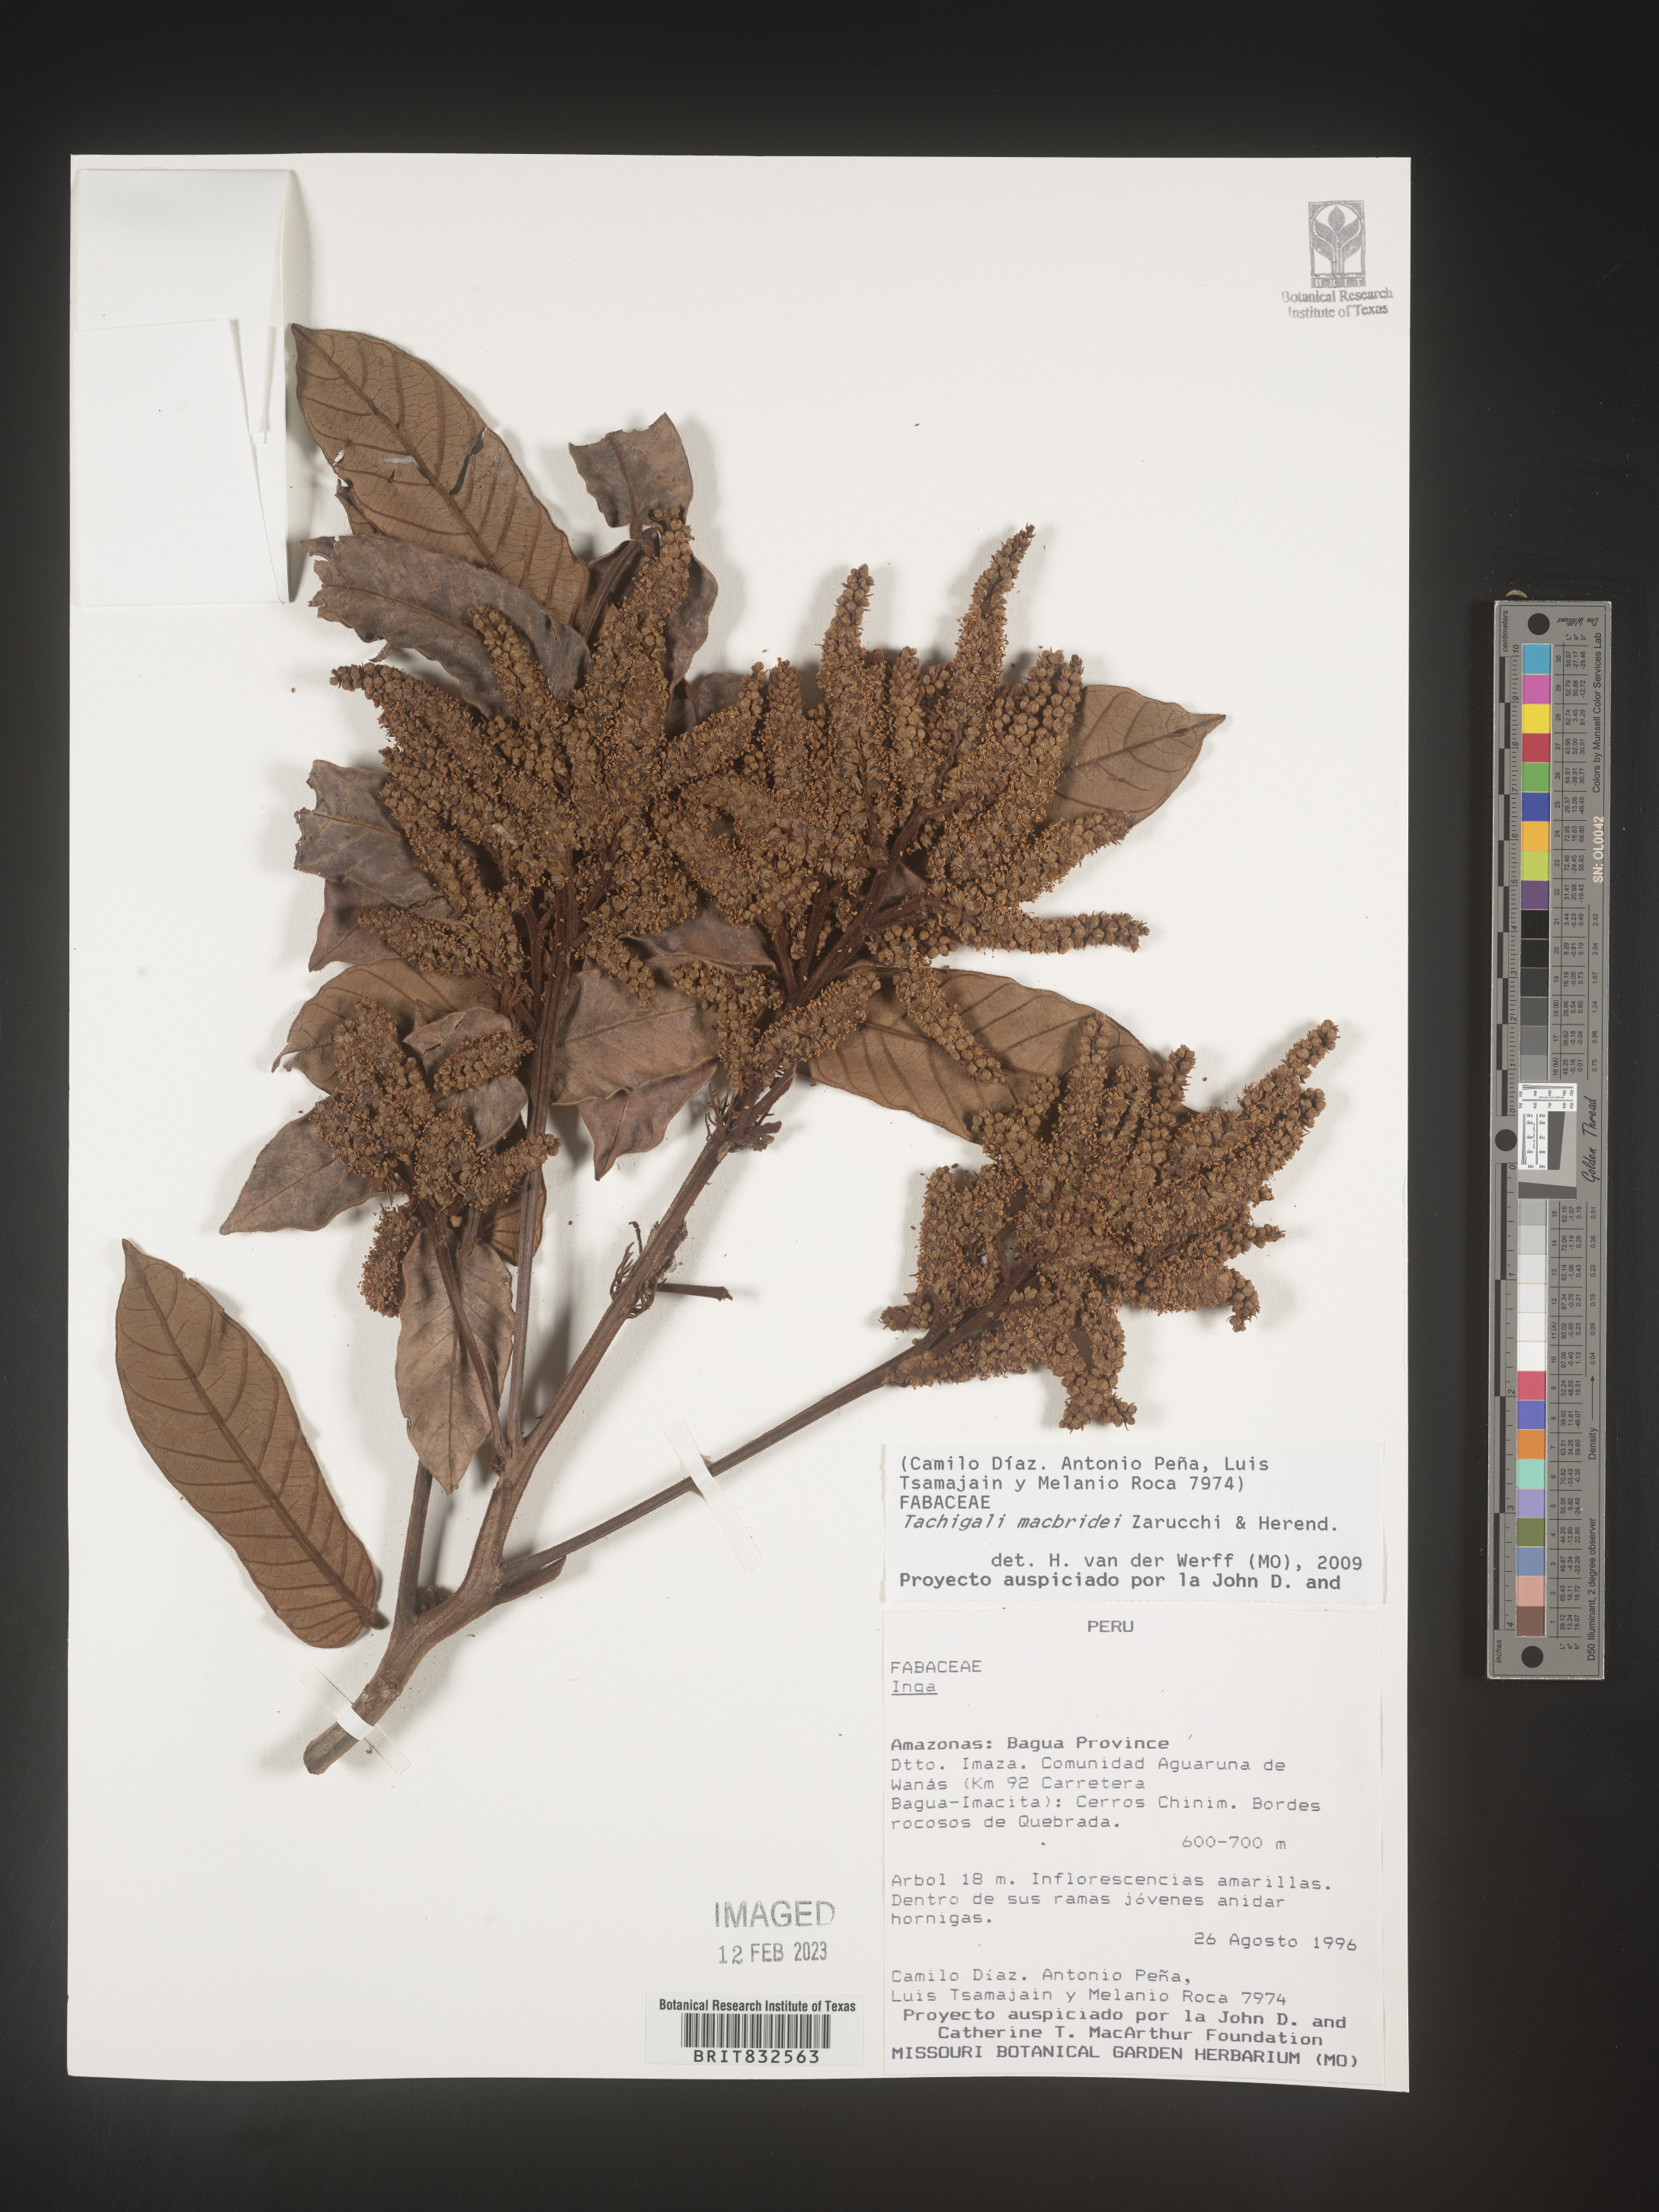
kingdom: Plantae
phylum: Tracheophyta
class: Magnoliopsida
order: Fabales
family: Fabaceae
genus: Tachigali
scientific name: Tachigali macbridei
